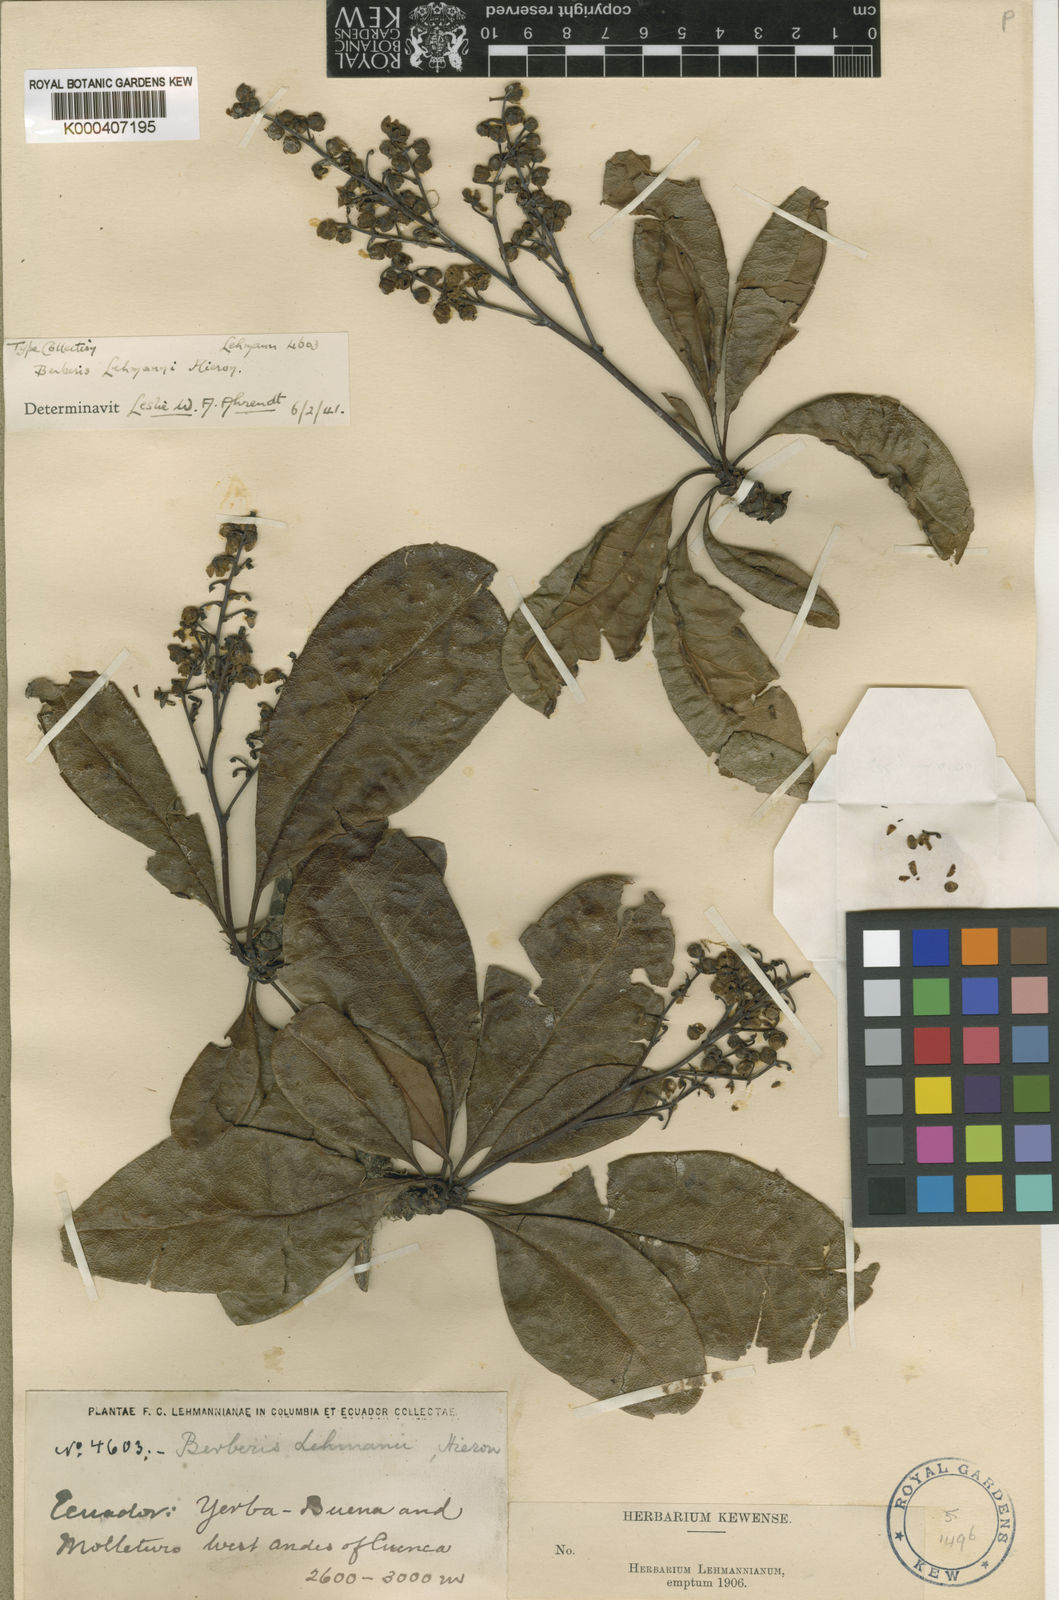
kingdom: Plantae
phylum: Tracheophyta
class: Magnoliopsida
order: Ranunculales
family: Berberidaceae
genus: Berberis
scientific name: Berberis lehmannii
